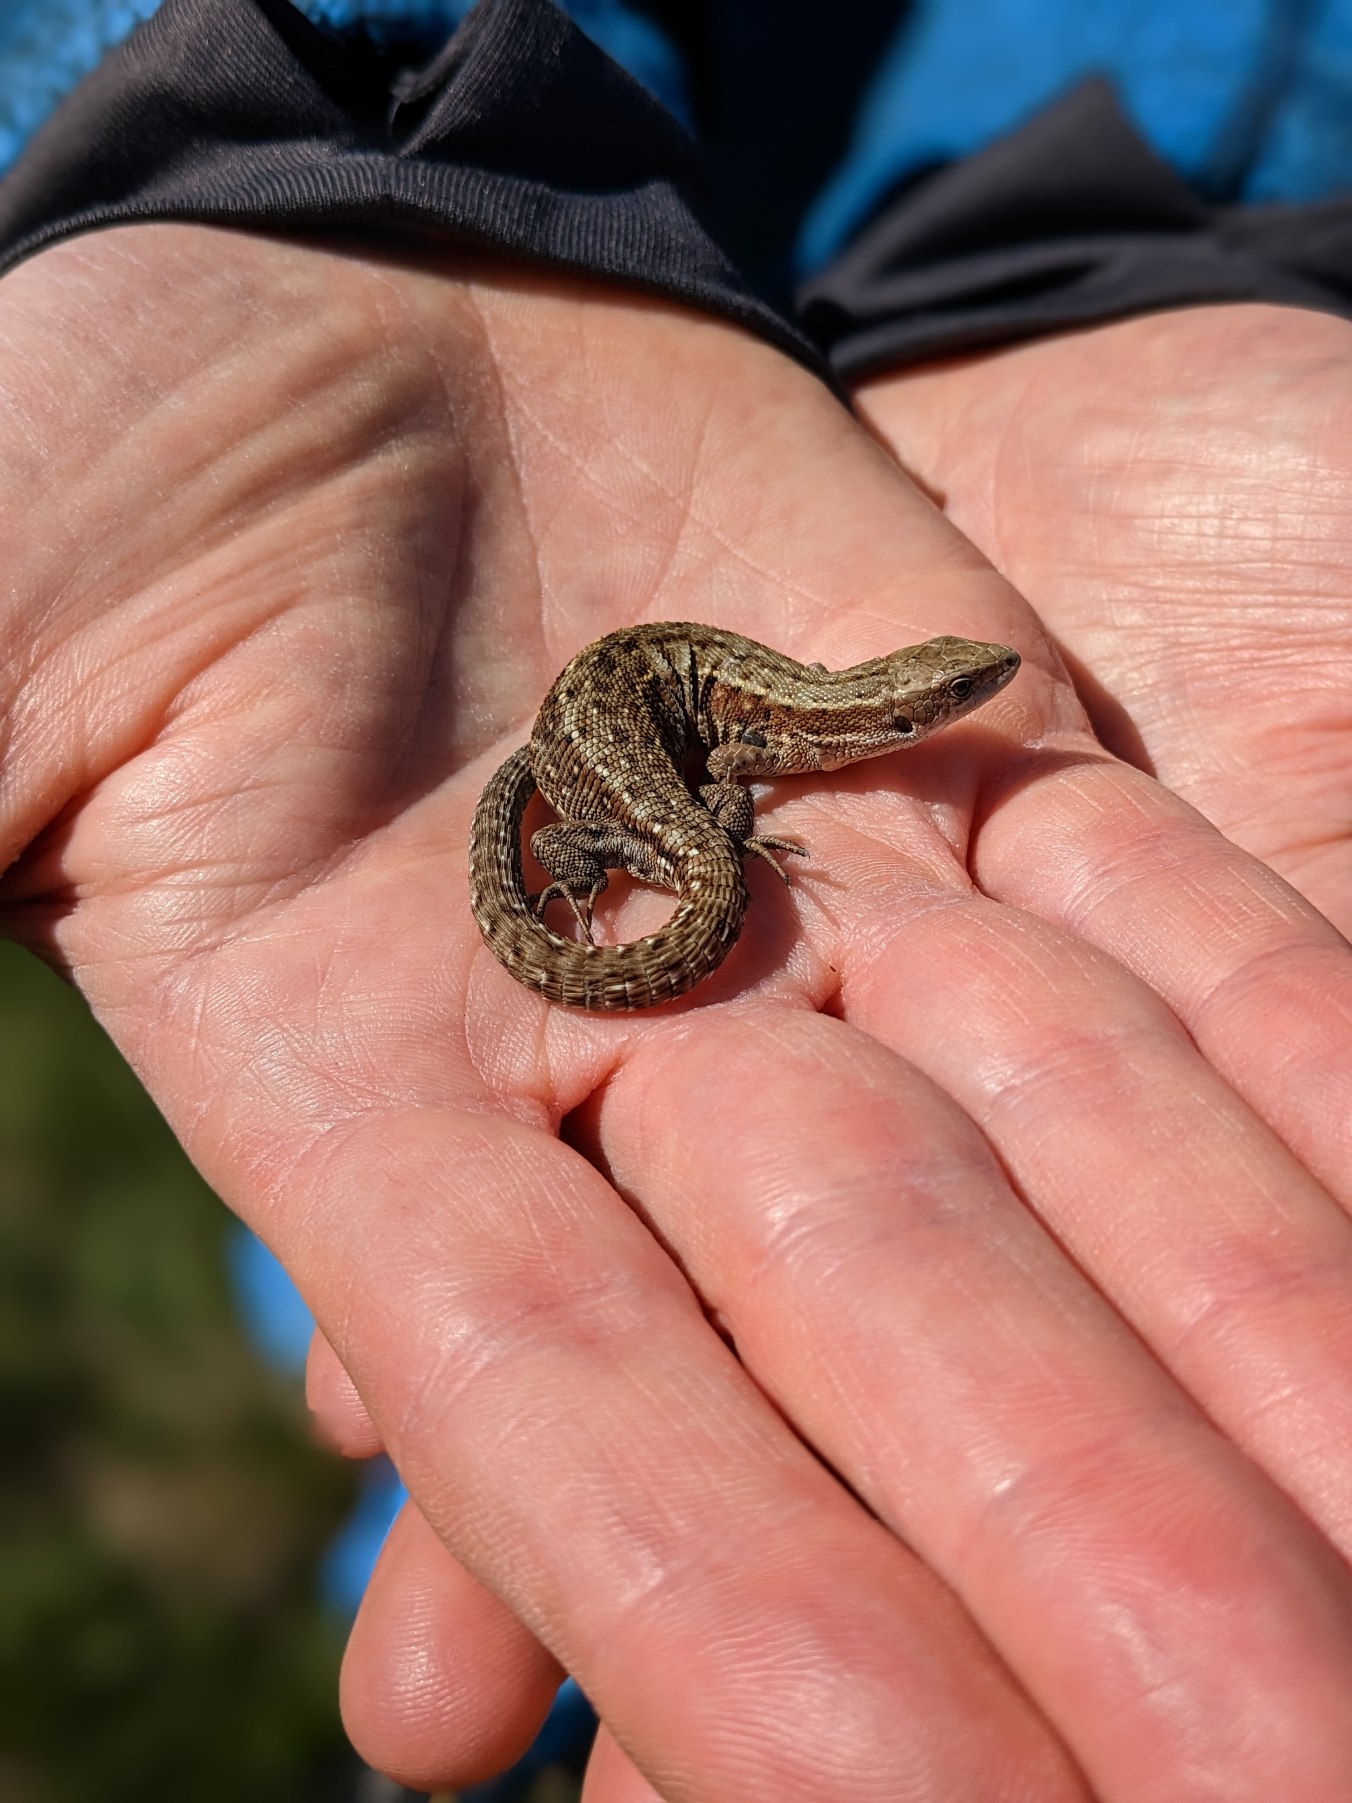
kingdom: Animalia
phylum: Chordata
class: Squamata
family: Lacertidae
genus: Zootoca
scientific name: Zootoca vivipara
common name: Skovfirben
